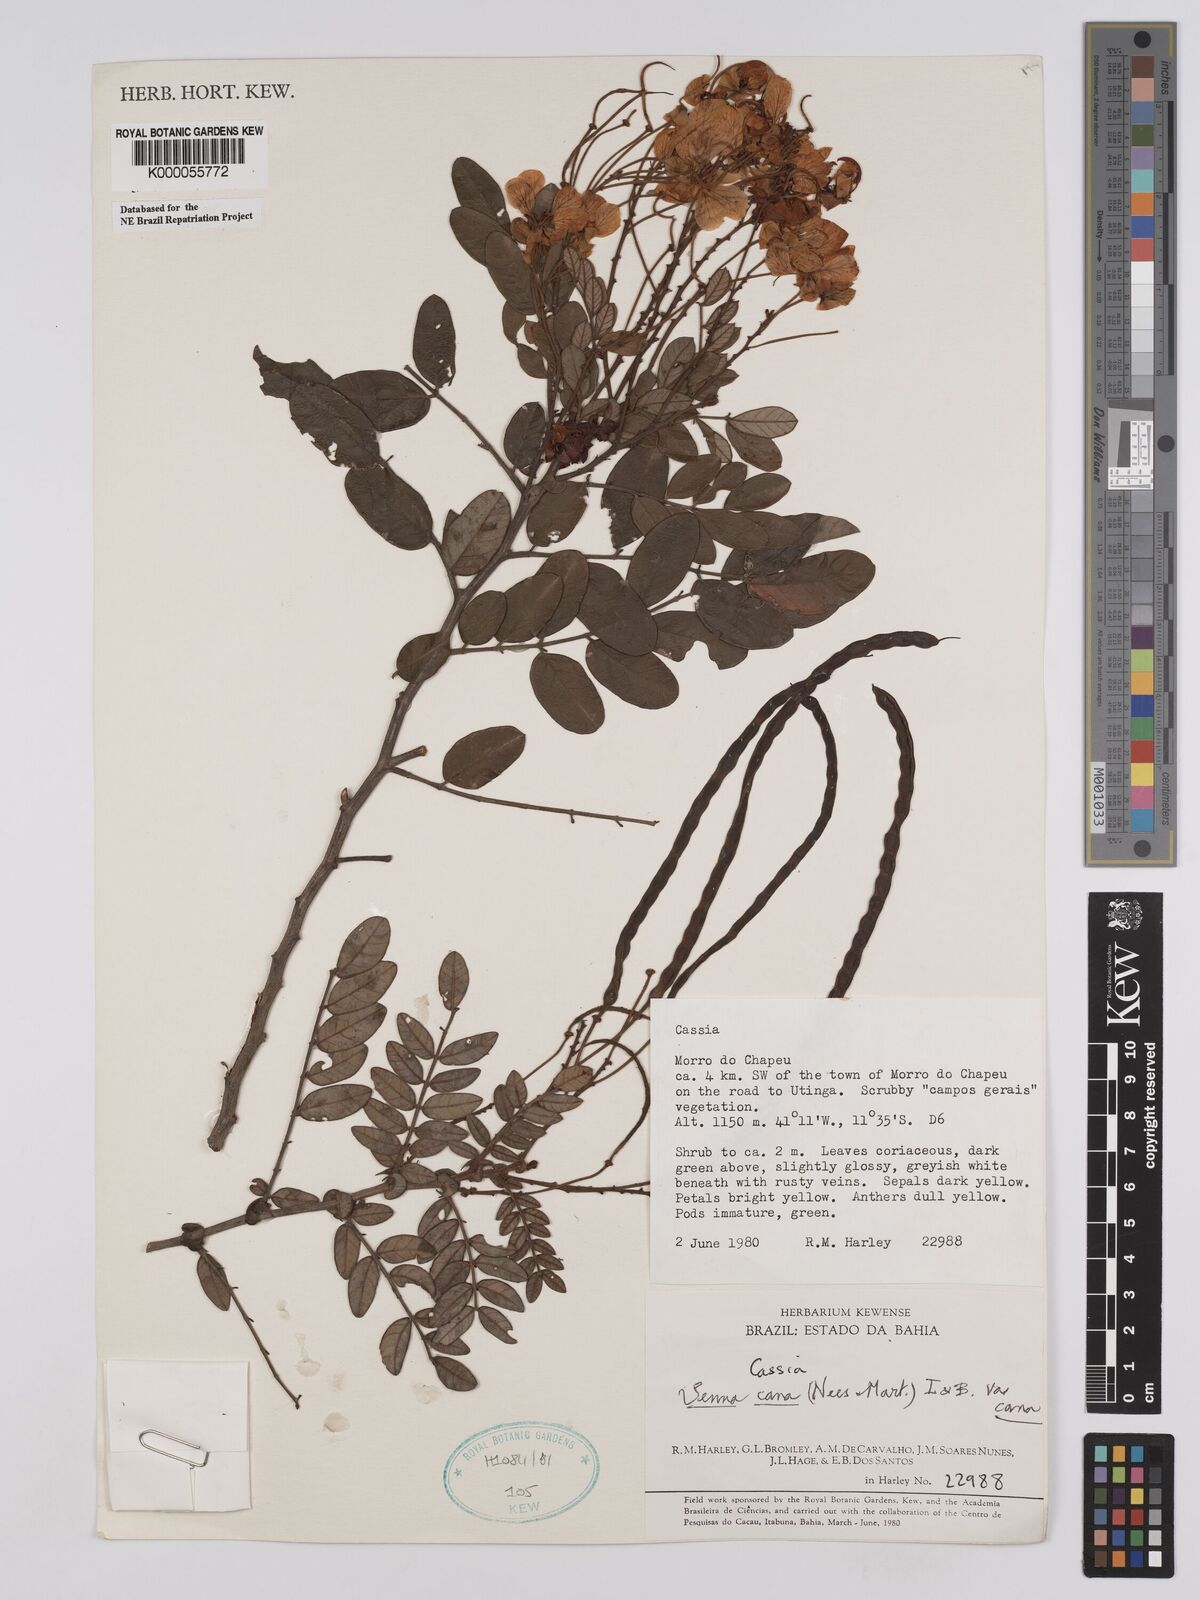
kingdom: Plantae
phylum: Tracheophyta
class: Magnoliopsida
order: Fabales
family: Fabaceae
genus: Senna
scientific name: Senna cana
